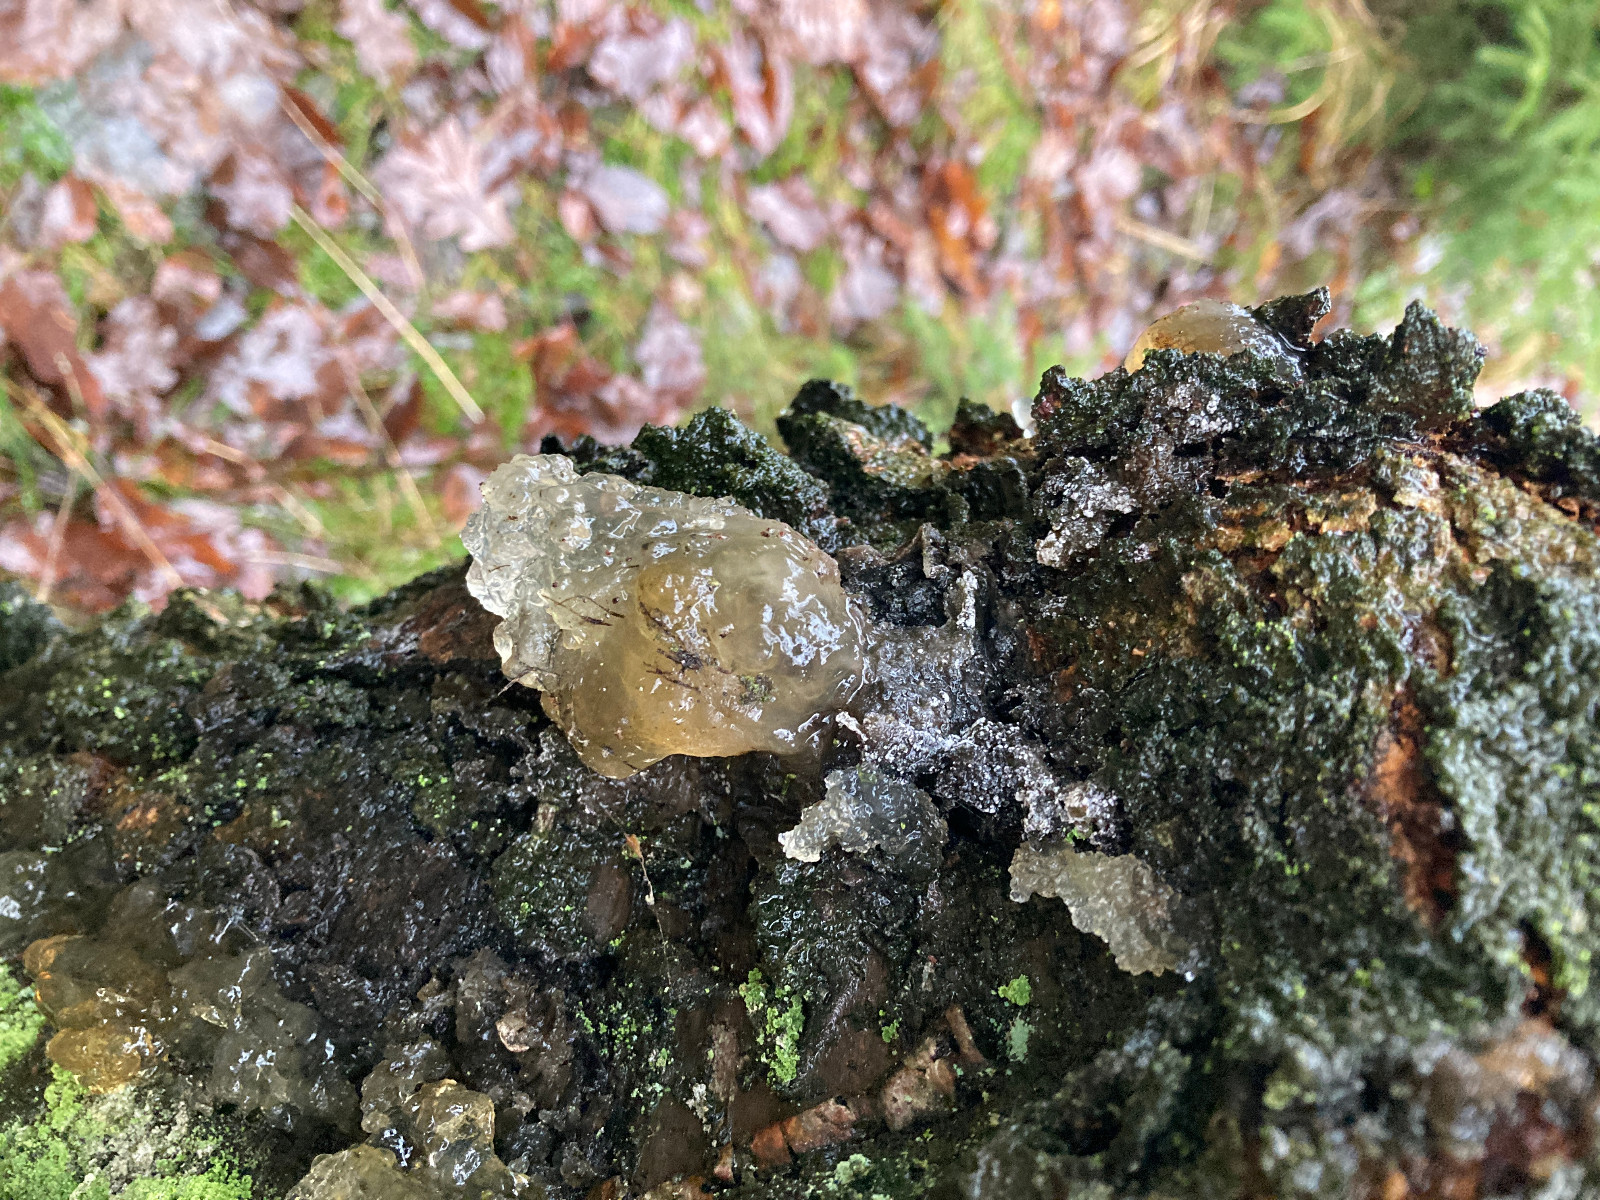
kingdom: Fungi
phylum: Basidiomycota
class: Agaricomycetes
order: Auriculariales
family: Hyaloriaceae
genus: Myxarium
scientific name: Myxarium nucleatum
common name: klar bævretop
